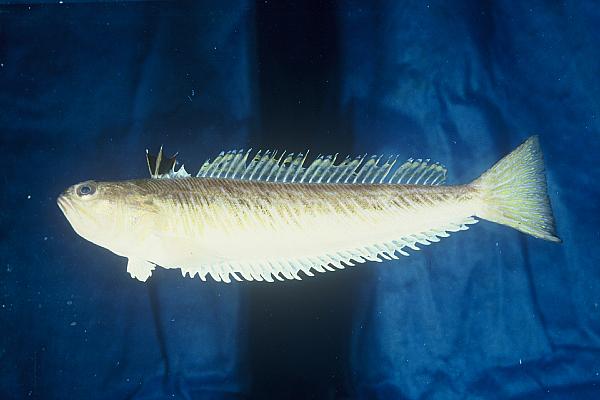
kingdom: Animalia
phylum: Chordata
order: Perciformes
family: Trachinidae
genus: Trachinus
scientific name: Trachinus draco
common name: Greater weever
